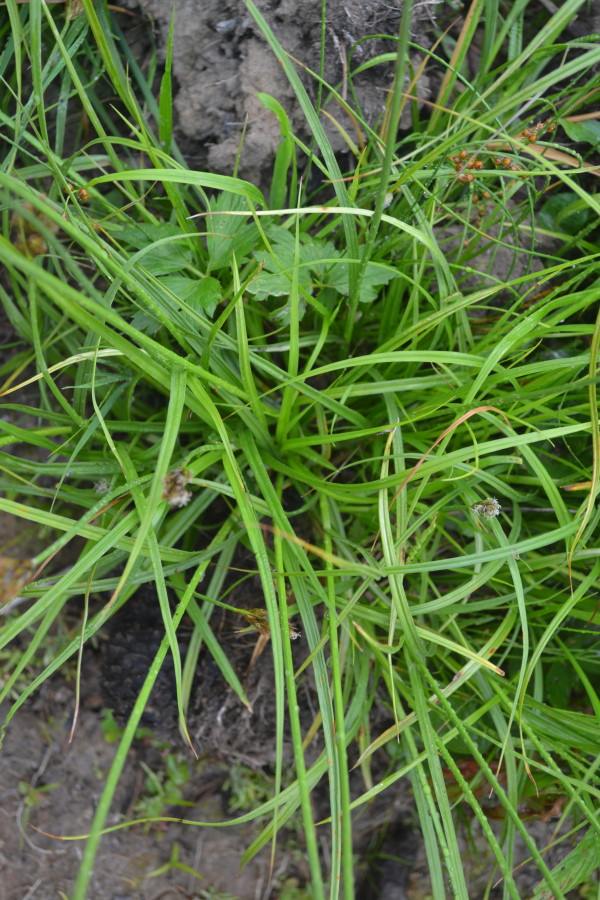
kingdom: Plantae
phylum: Tracheophyta
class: Liliopsida
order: Poales
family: Cyperaceae
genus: Carex
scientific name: Carex leporina
